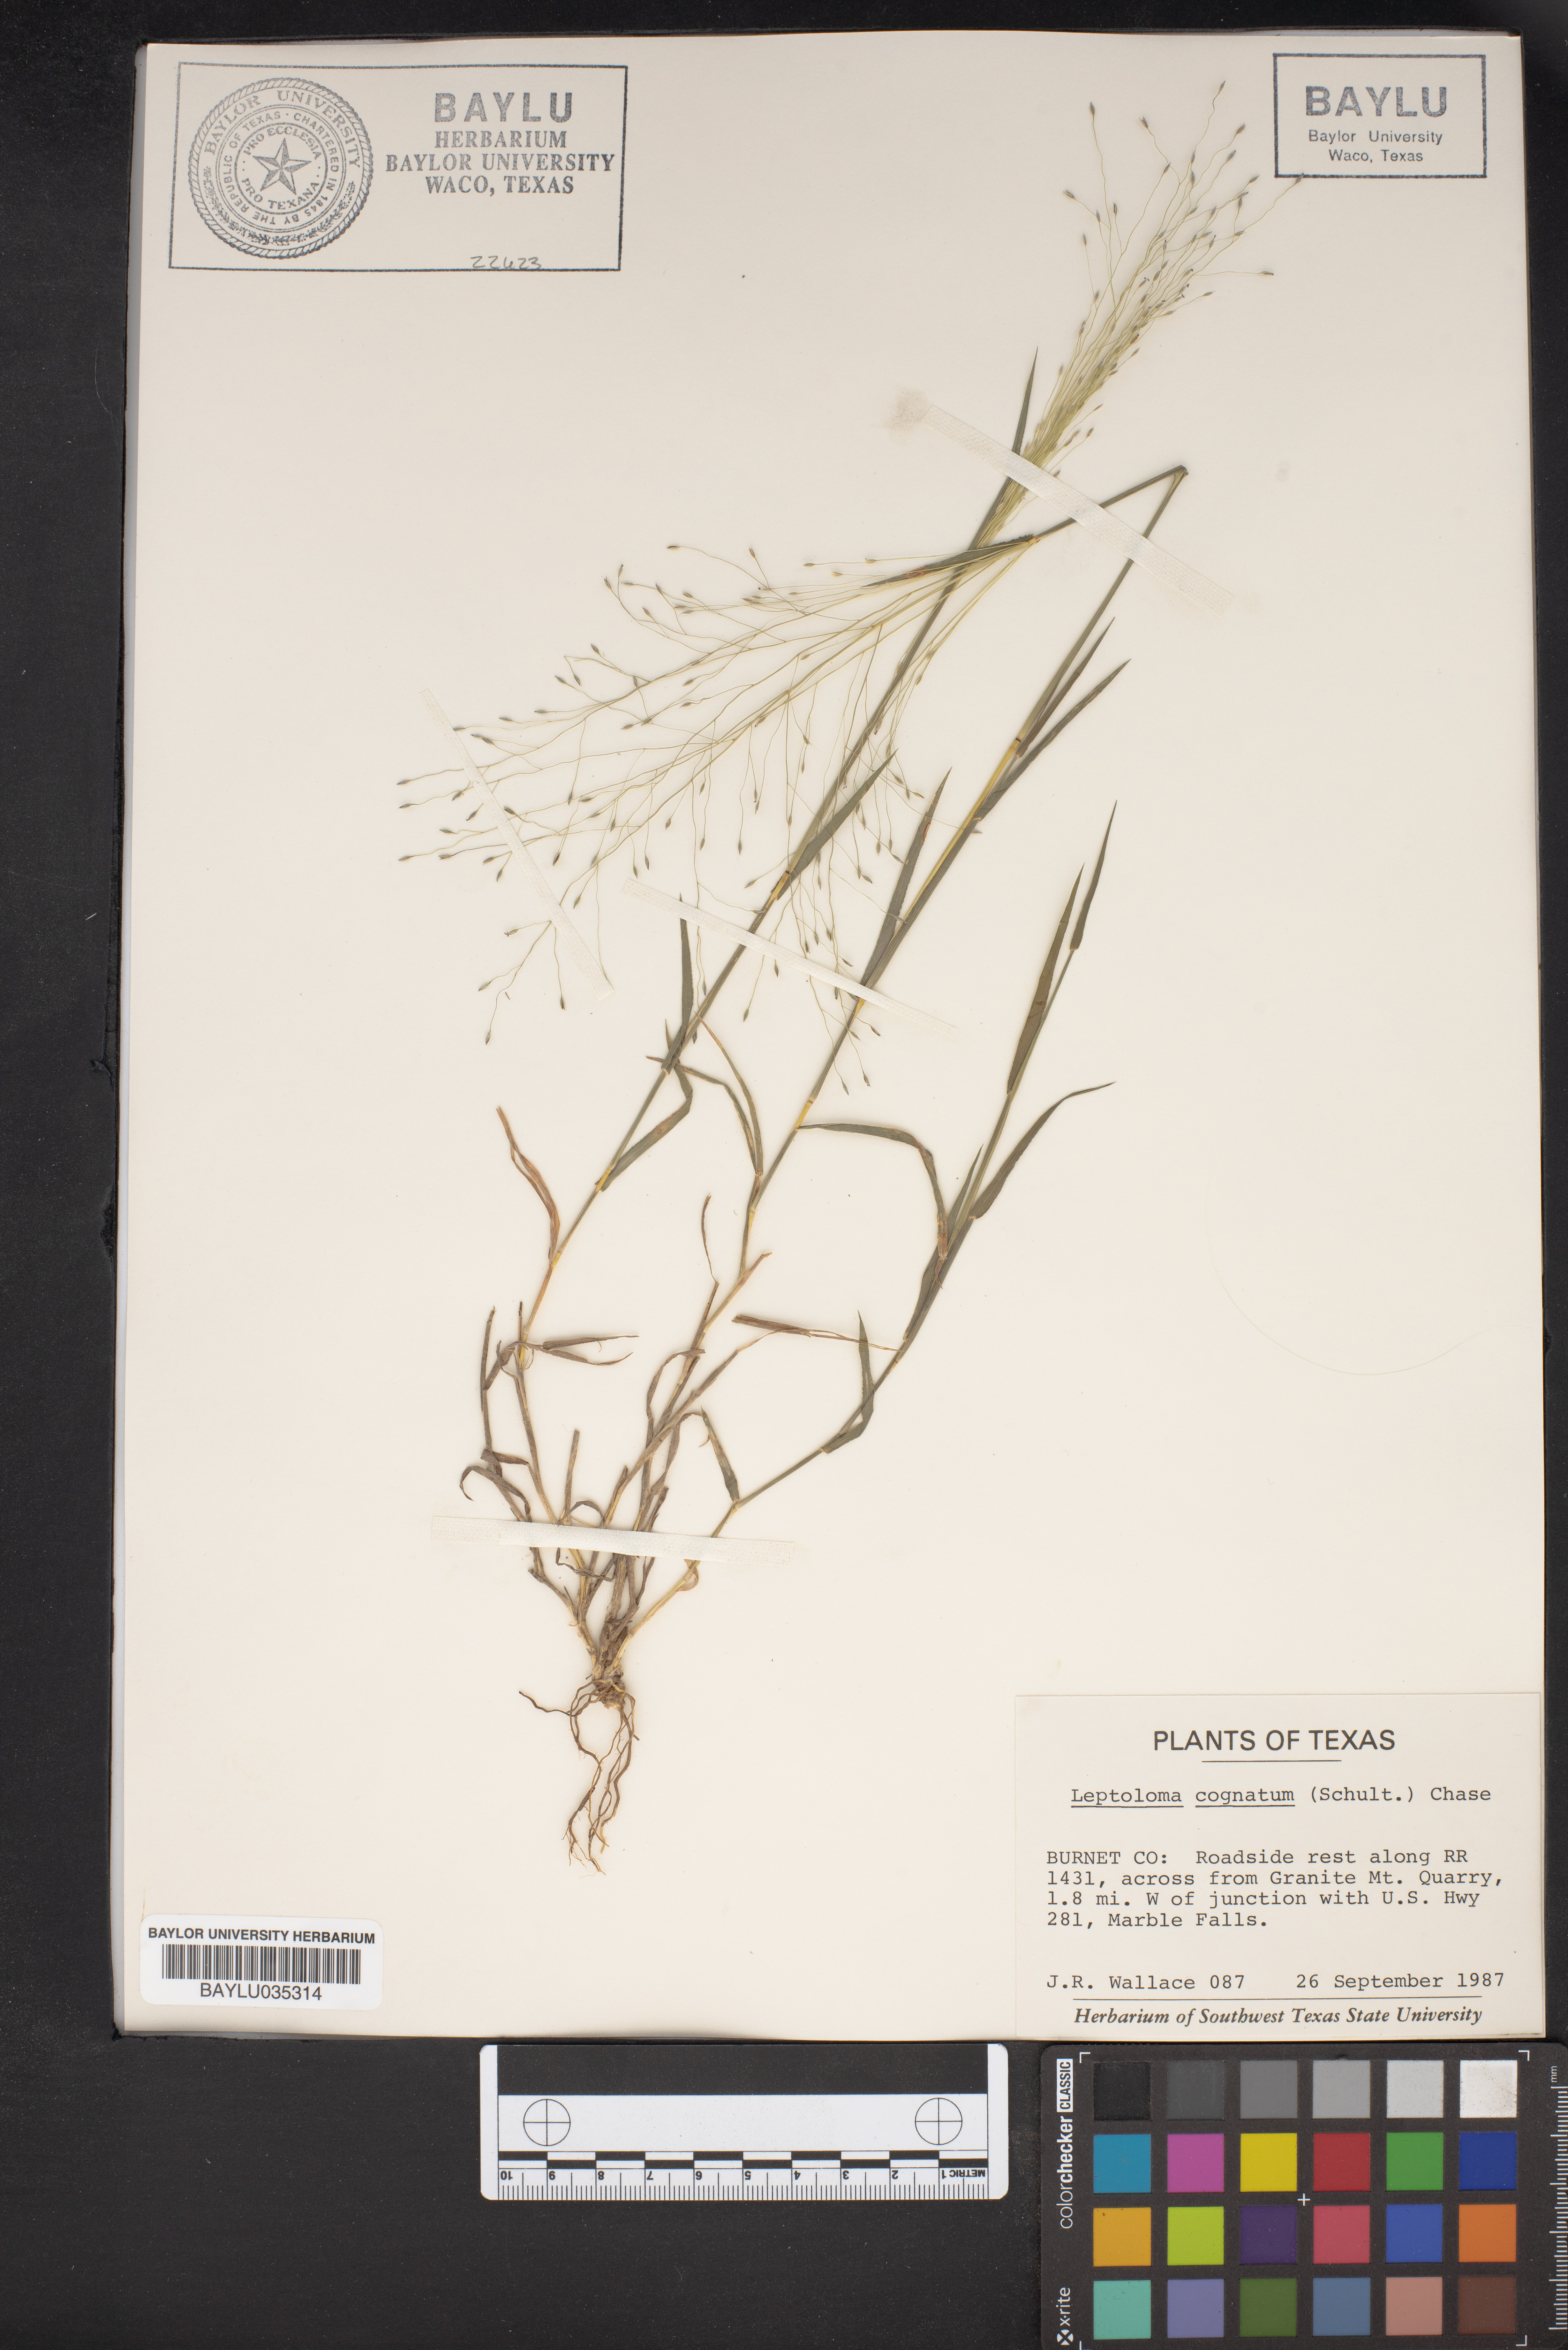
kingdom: Plantae
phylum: Tracheophyta
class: Liliopsida
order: Poales
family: Poaceae
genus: Digitaria
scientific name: Digitaria cognata
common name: Fall witchgrass
